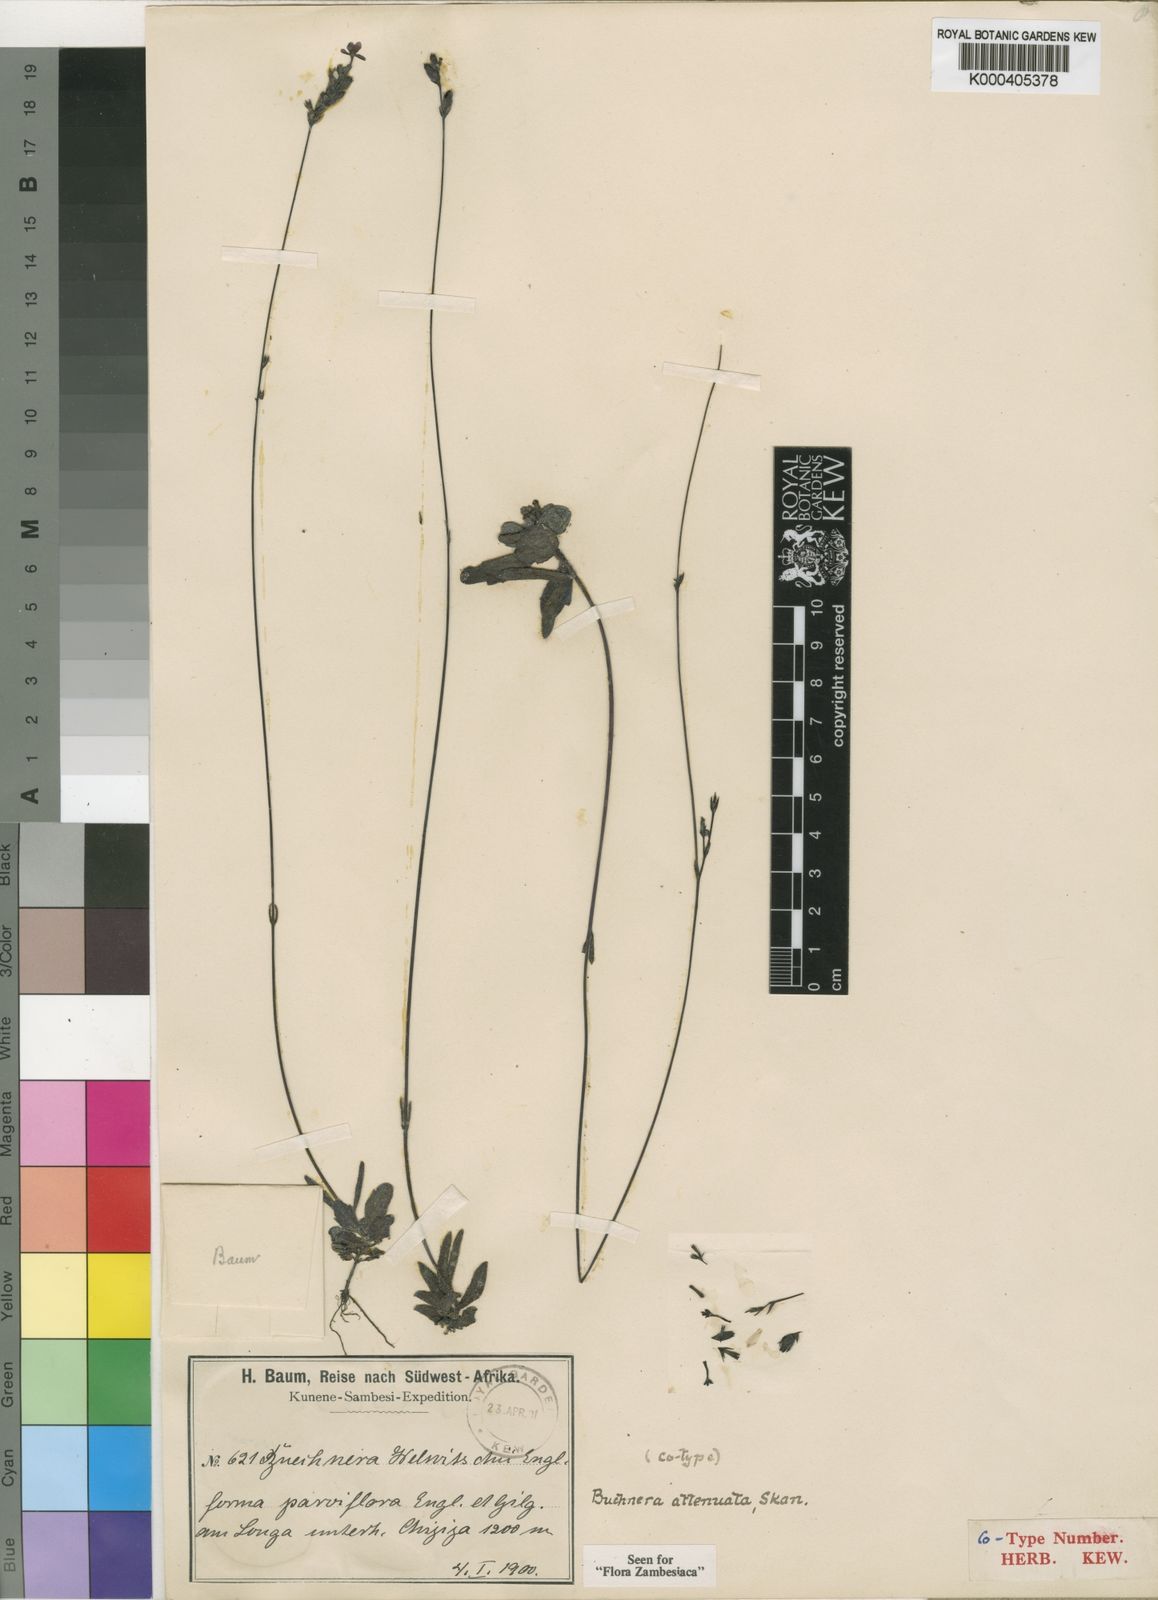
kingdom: Plantae
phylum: Tracheophyta
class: Magnoliopsida
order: Lamiales
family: Orobanchaceae
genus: Buchnera
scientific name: Buchnera attenuata
